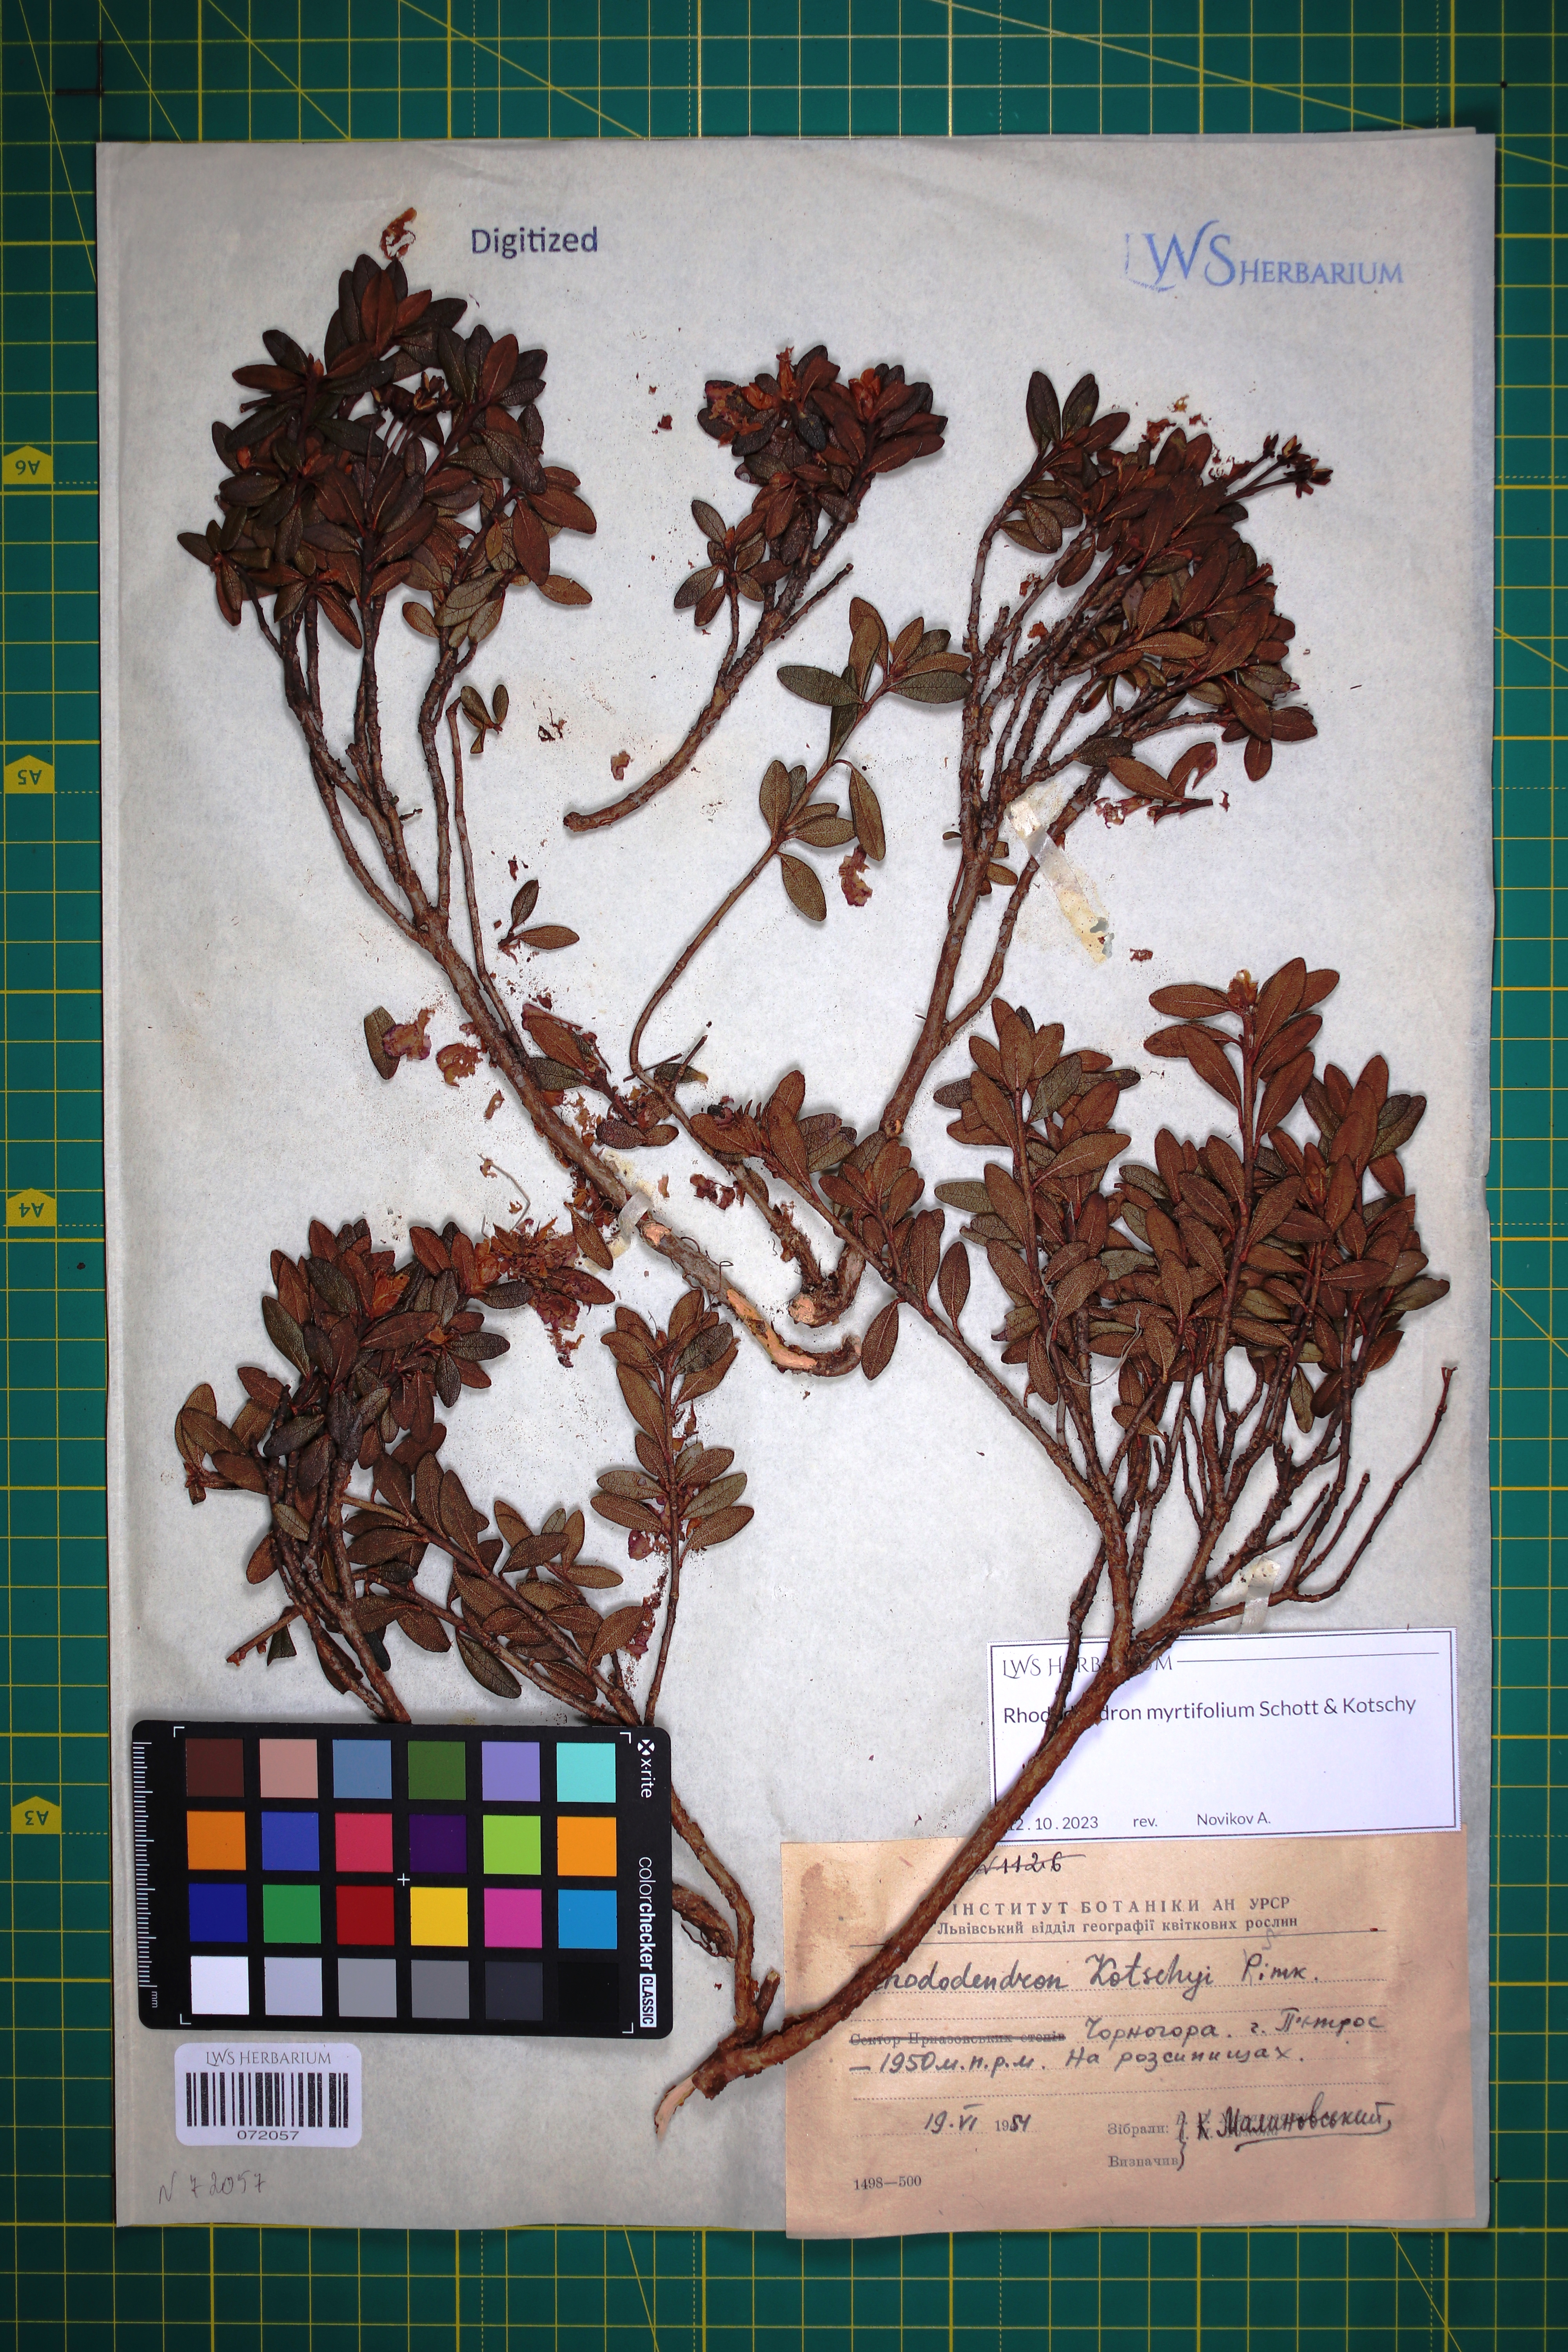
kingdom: Plantae
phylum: Tracheophyta
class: Magnoliopsida
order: Ericales
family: Ericaceae
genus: Rhododendron
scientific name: Rhododendron kotschyi
